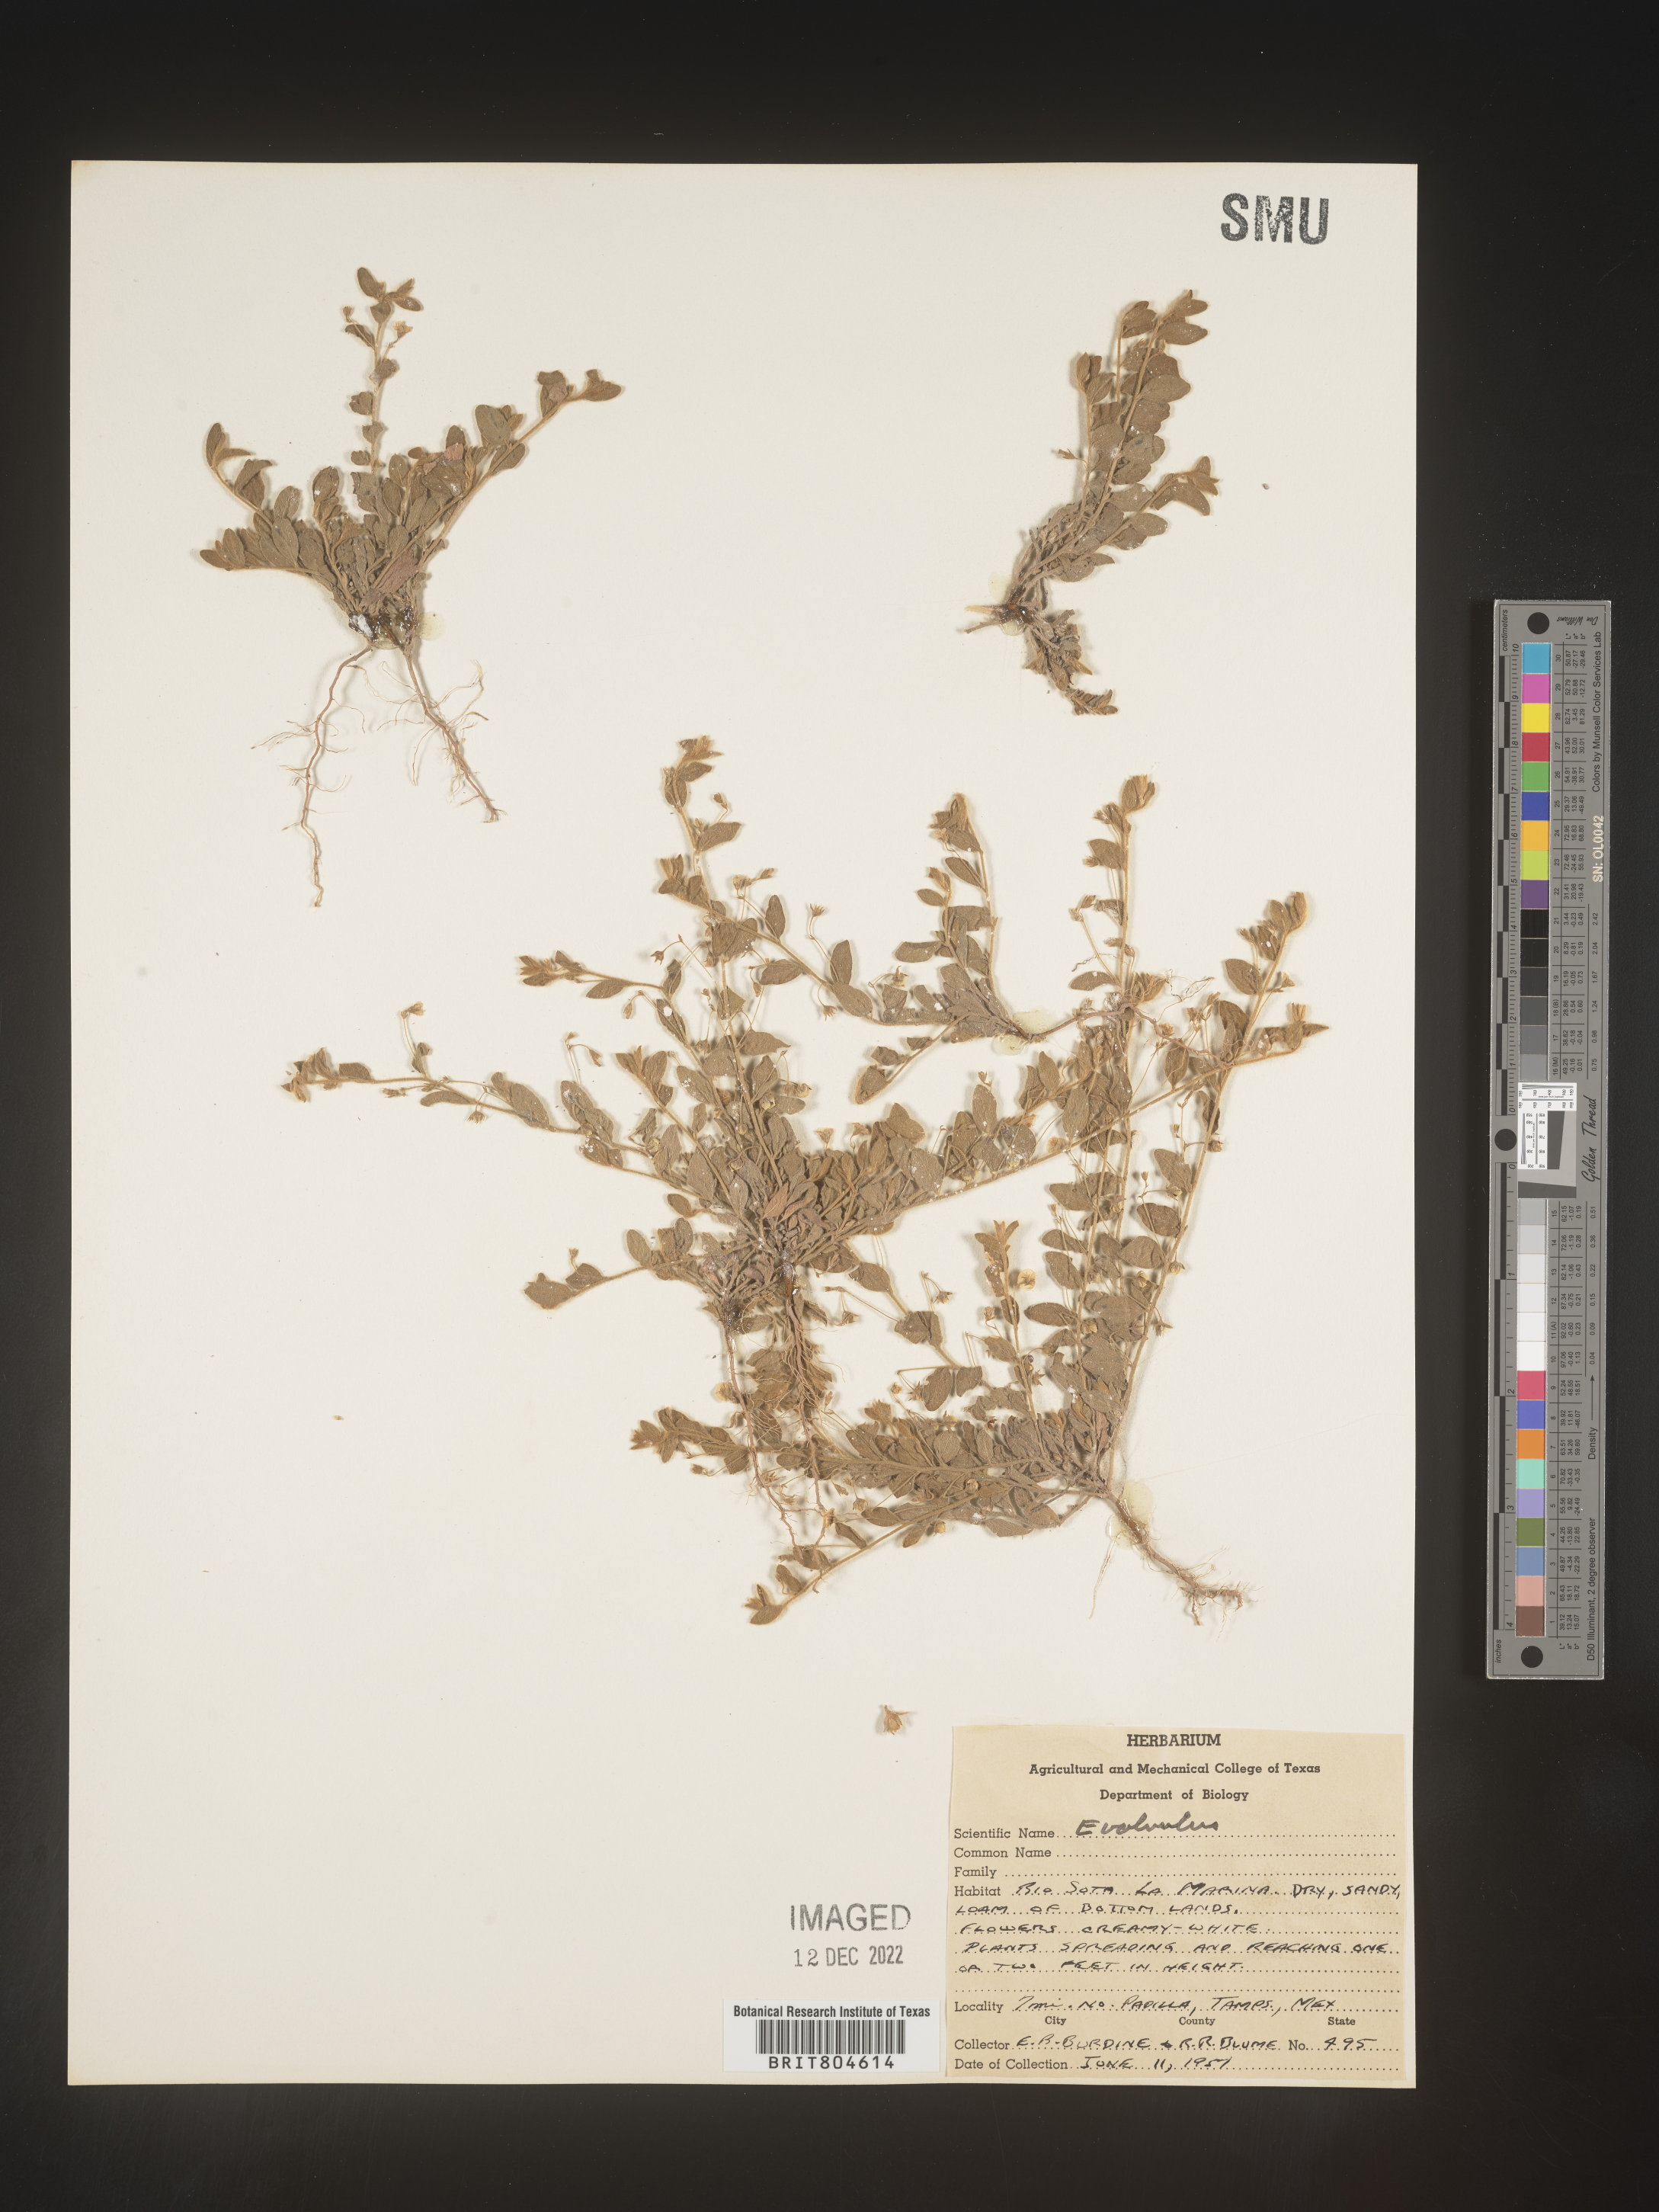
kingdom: Plantae
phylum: Tracheophyta
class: Magnoliopsida
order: Solanales
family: Convolvulaceae
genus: Evolvulus
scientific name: Evolvulus
